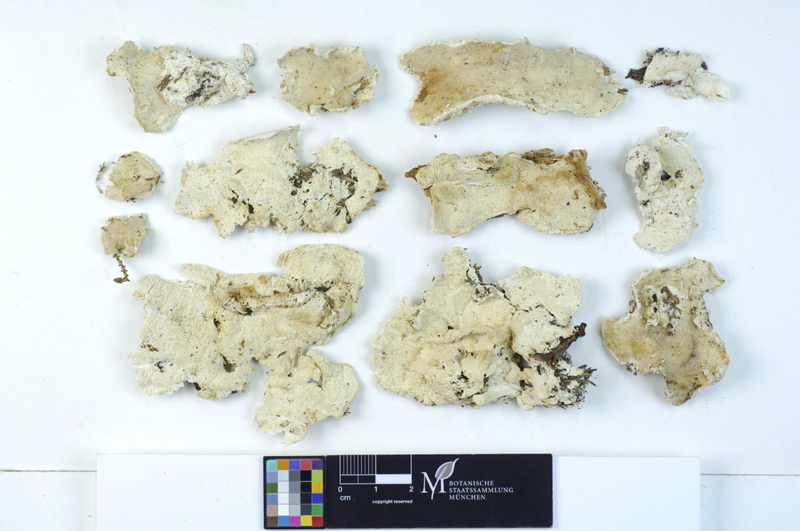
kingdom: Plantae
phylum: Tracheophyta
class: Pinopsida
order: Pinales
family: Pinaceae
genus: Picea
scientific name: Picea
